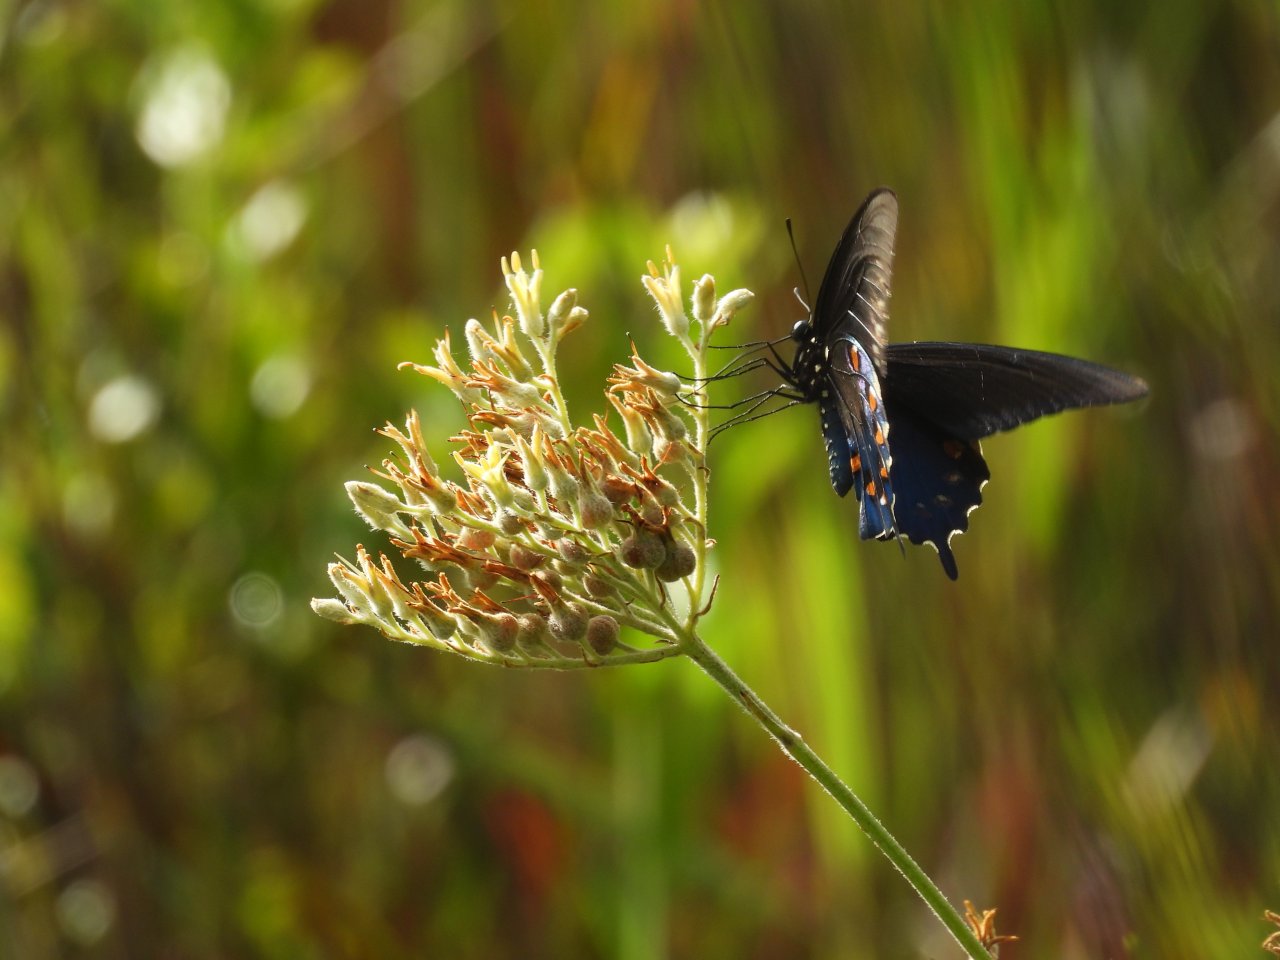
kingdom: Animalia
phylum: Arthropoda
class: Insecta
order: Lepidoptera
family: Papilionidae
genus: Battus
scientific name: Battus philenor
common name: Pipevine Swallowtail
